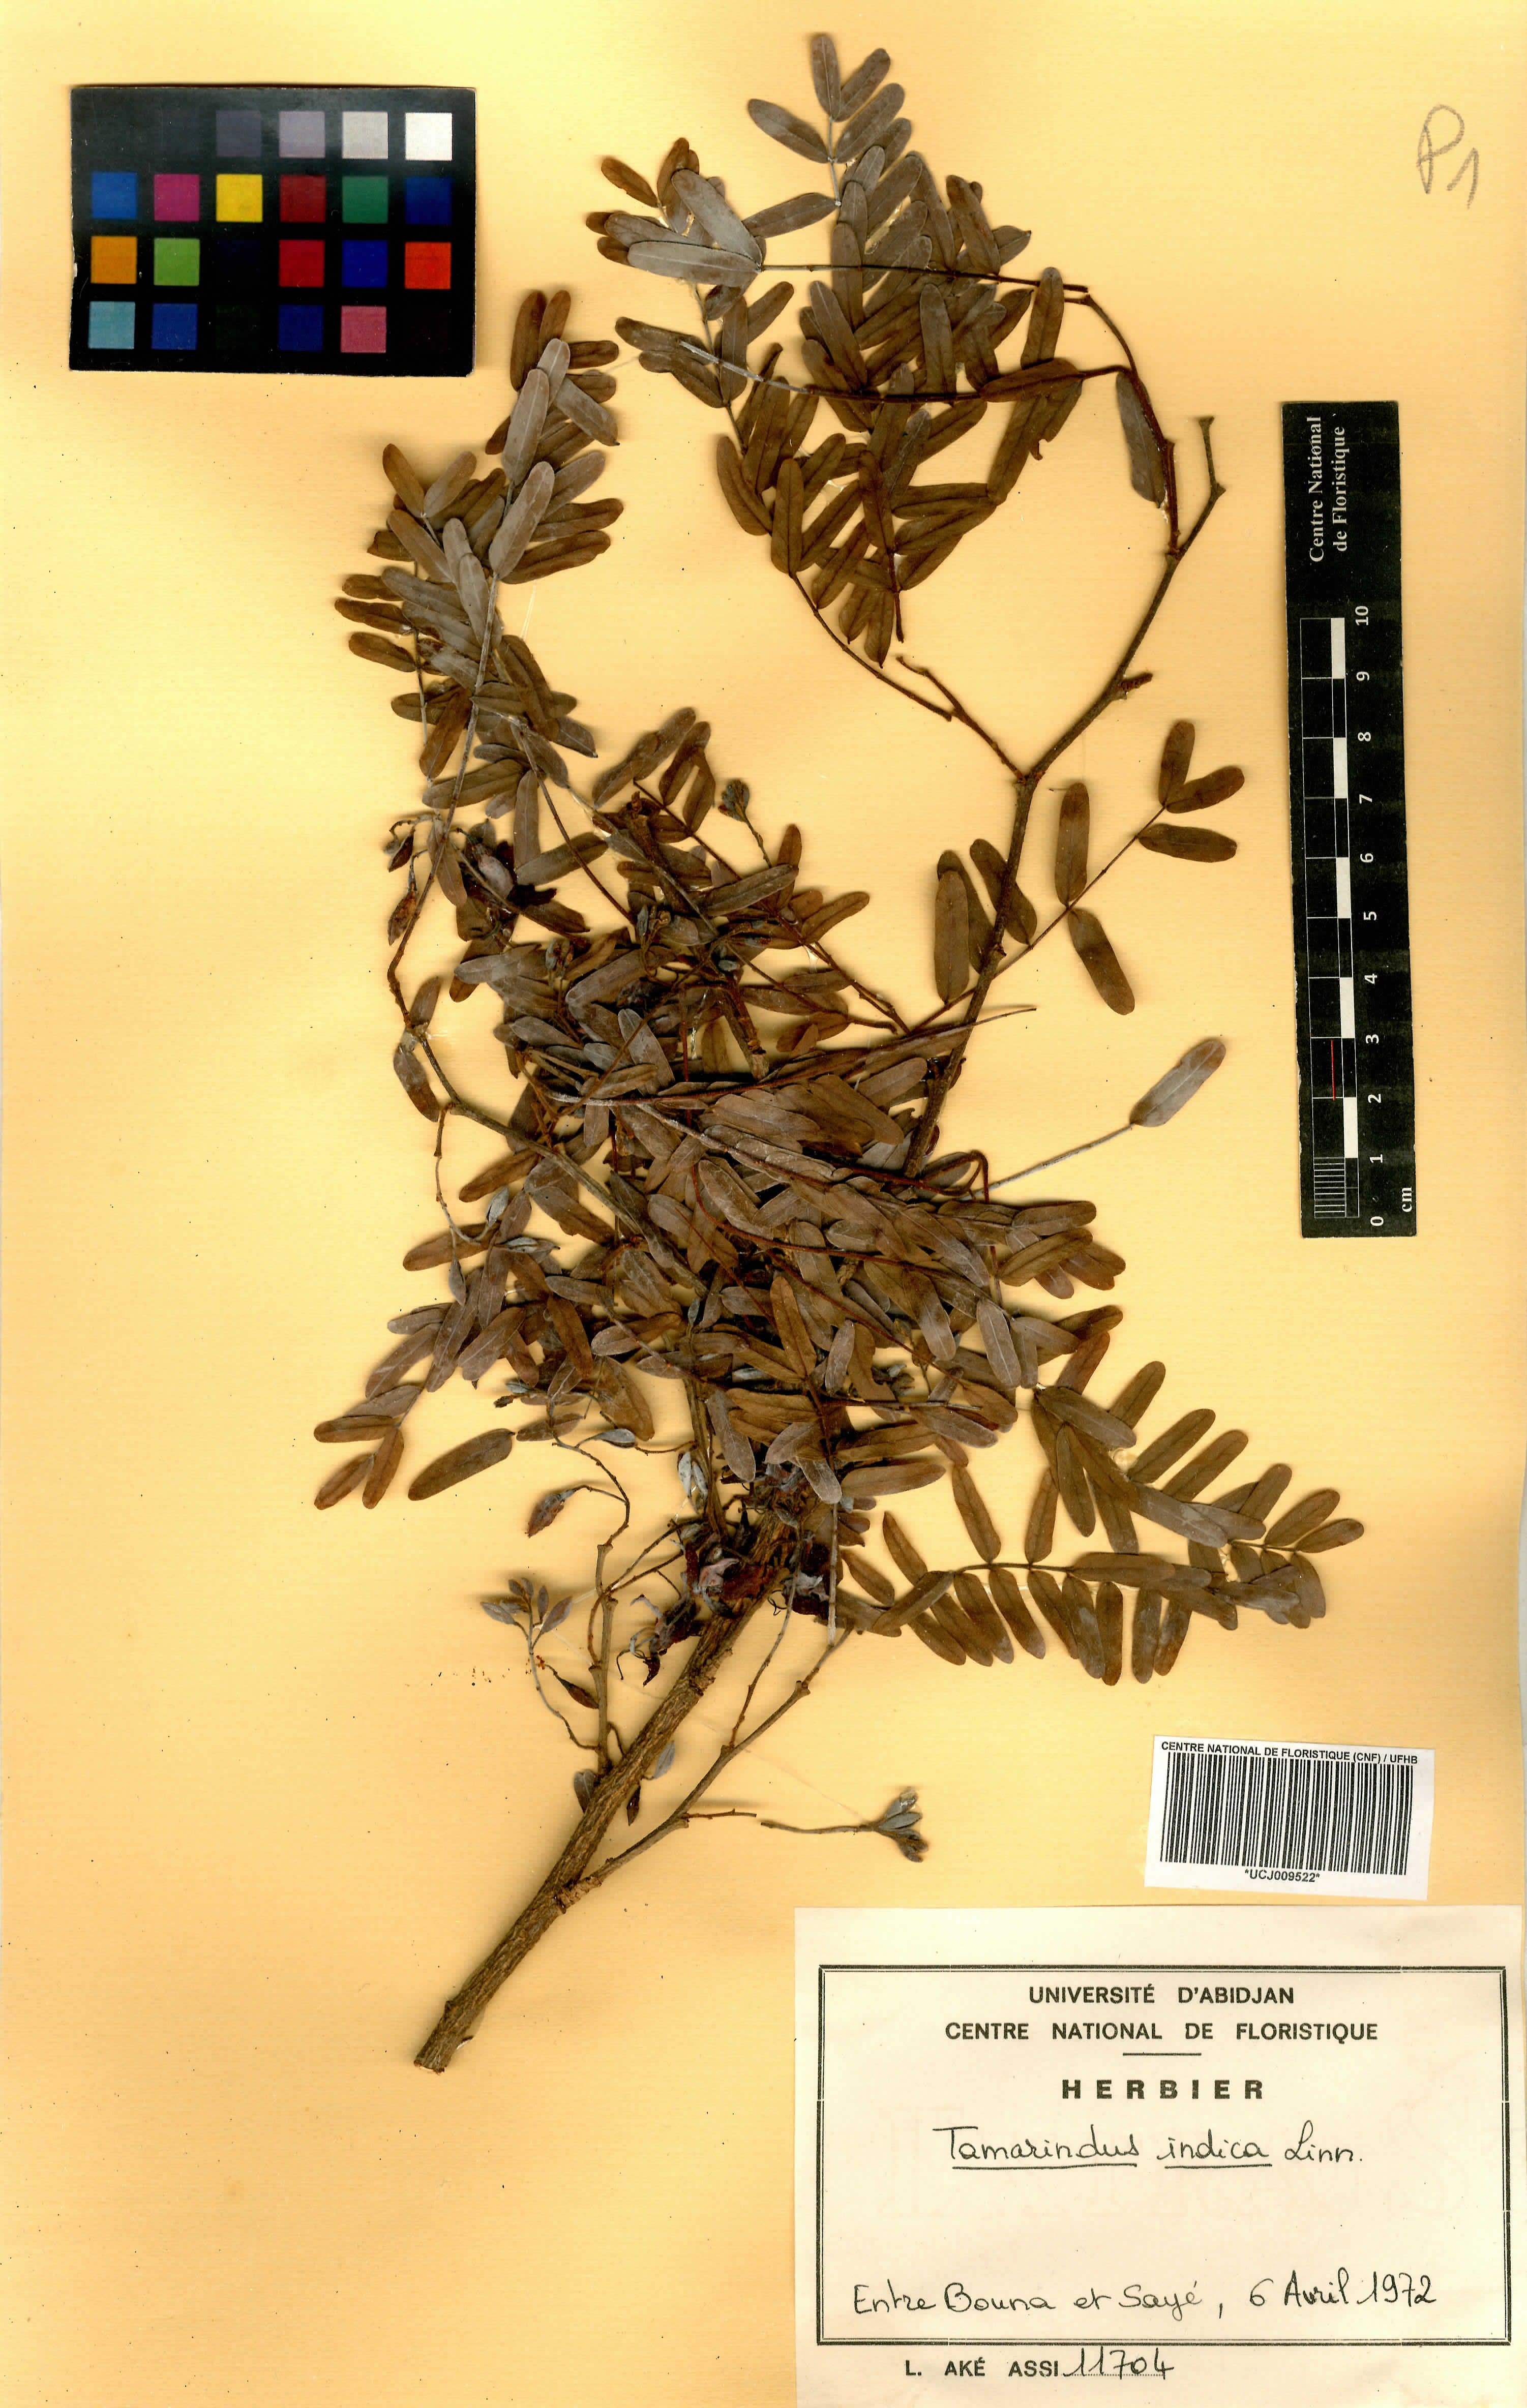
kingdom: Plantae
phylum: Tracheophyta
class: Magnoliopsida
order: Fabales
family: Fabaceae
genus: Tamarindus
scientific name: Tamarindus indica
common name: Tamarind
